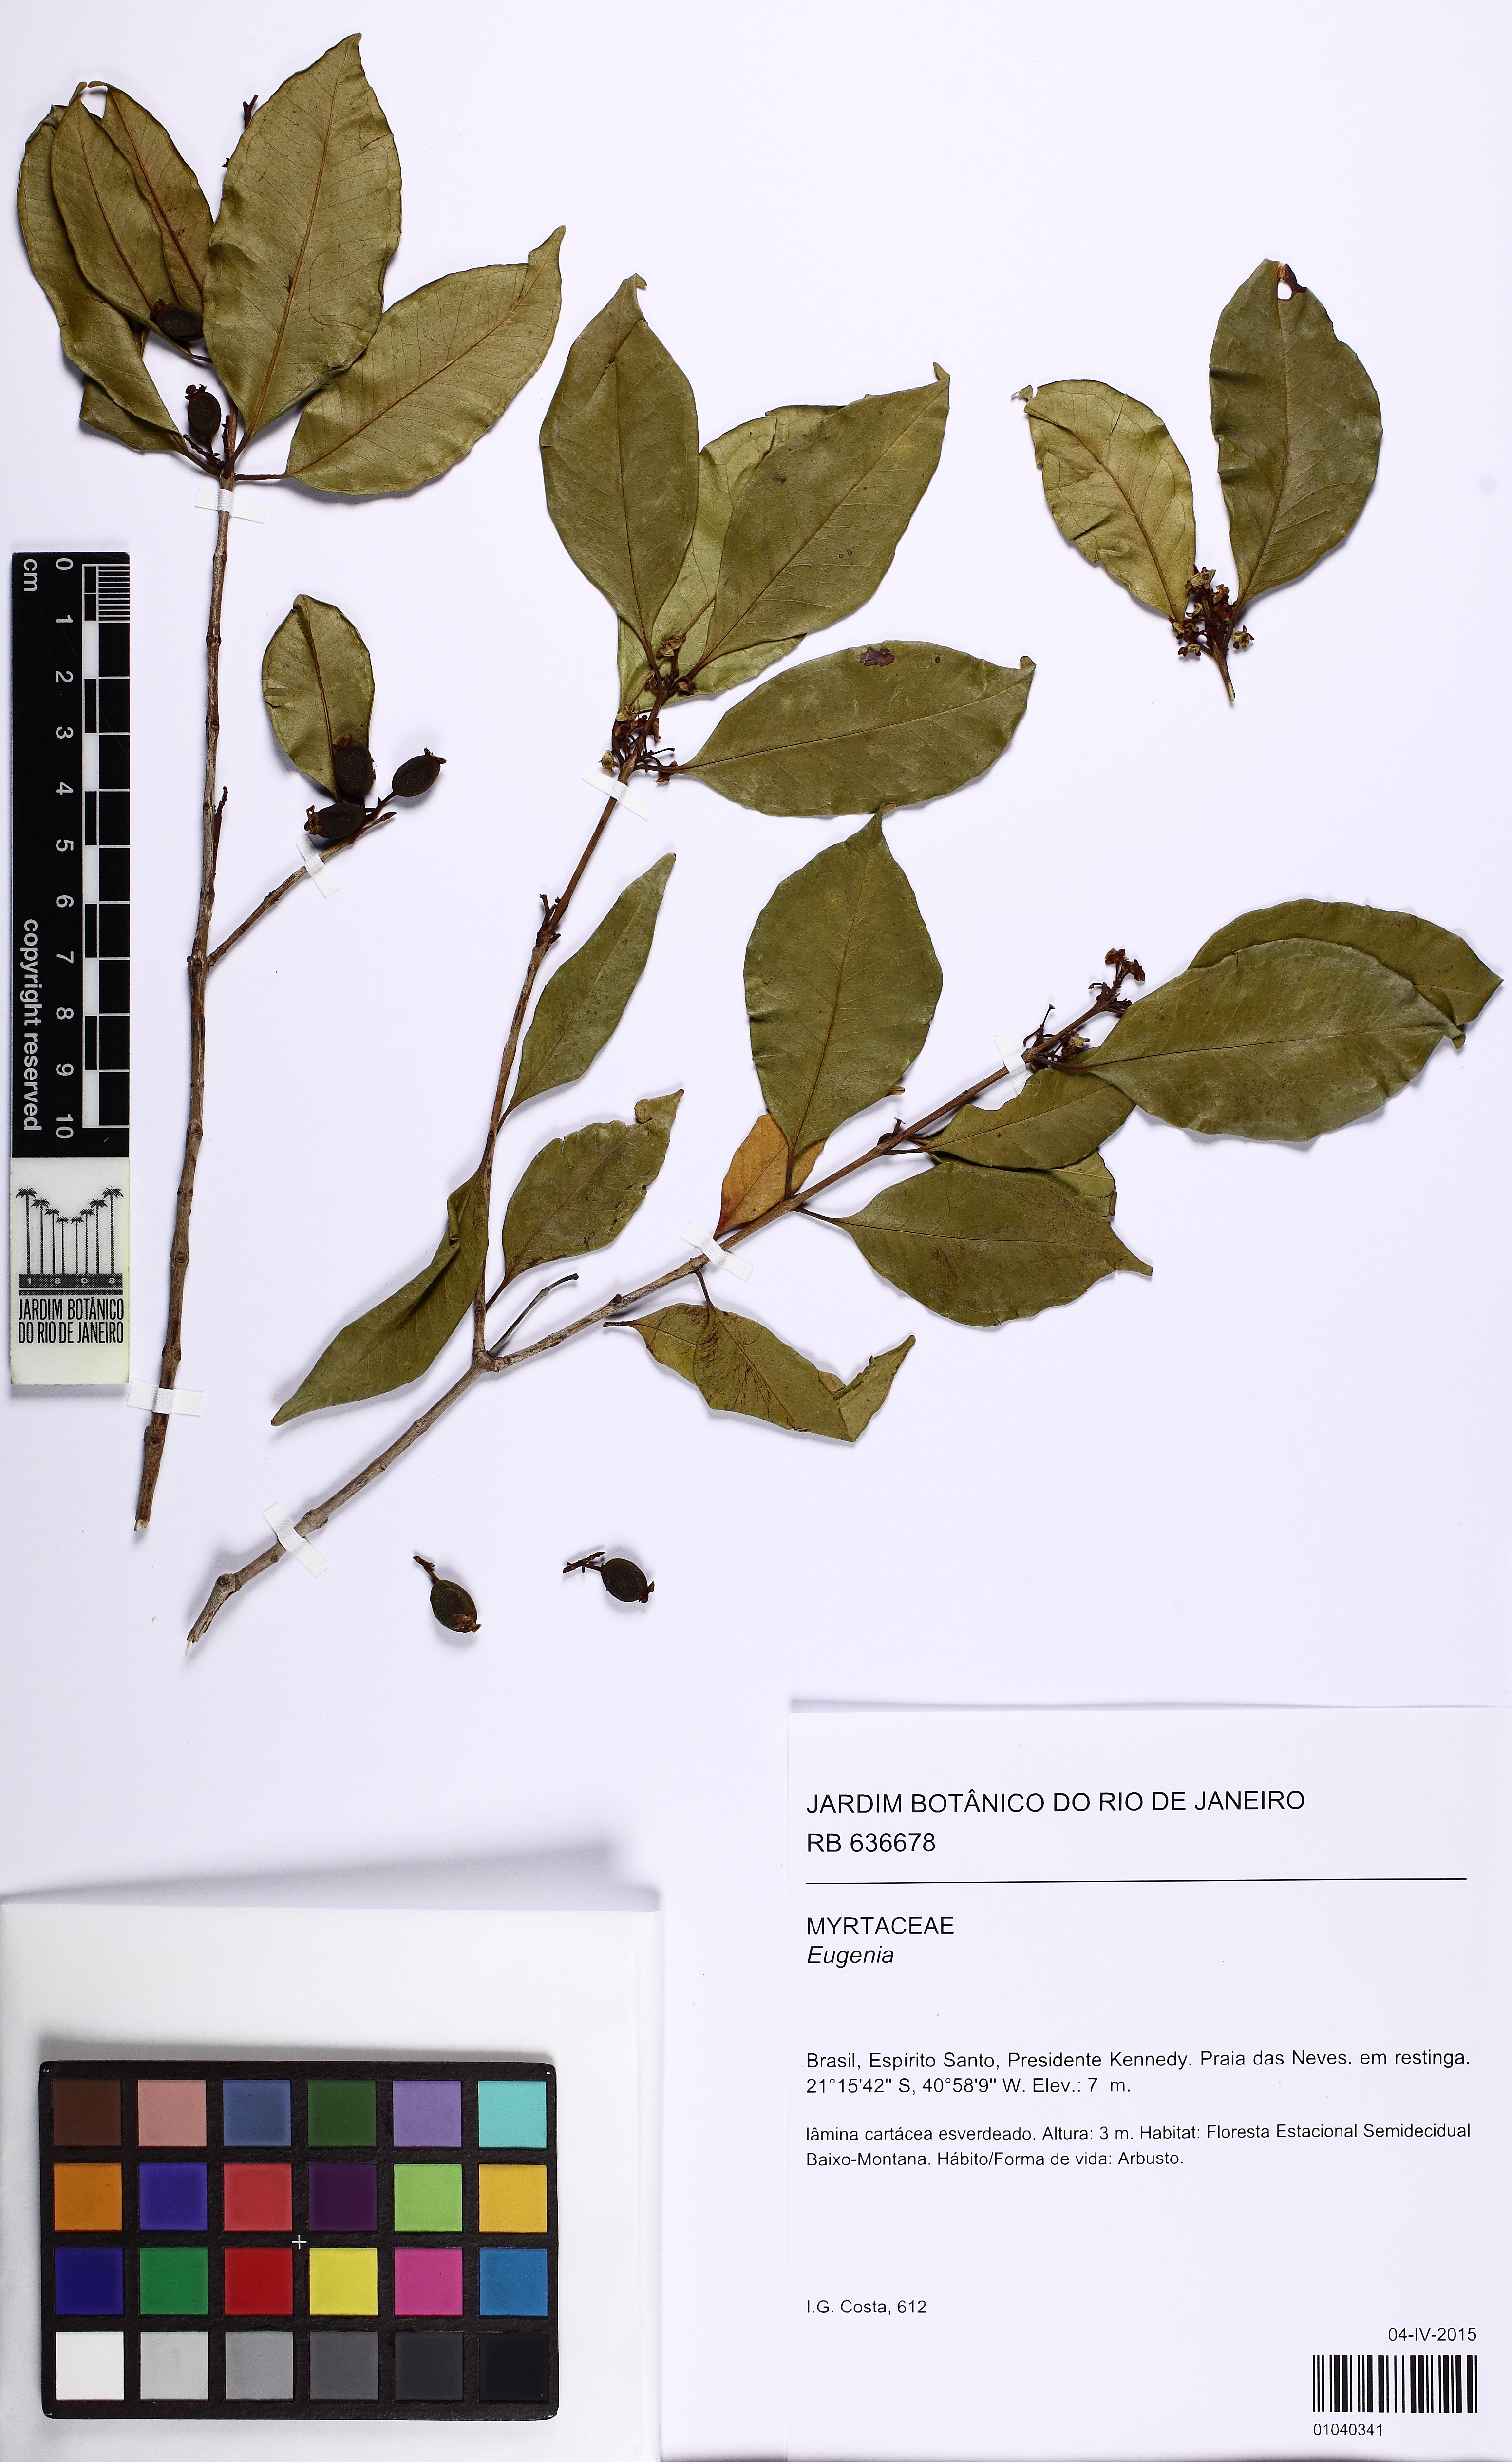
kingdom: Plantae
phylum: Tracheophyta
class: Magnoliopsida
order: Myrtales
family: Myrtaceae
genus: Eugenia
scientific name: Eugenia pruniformis
